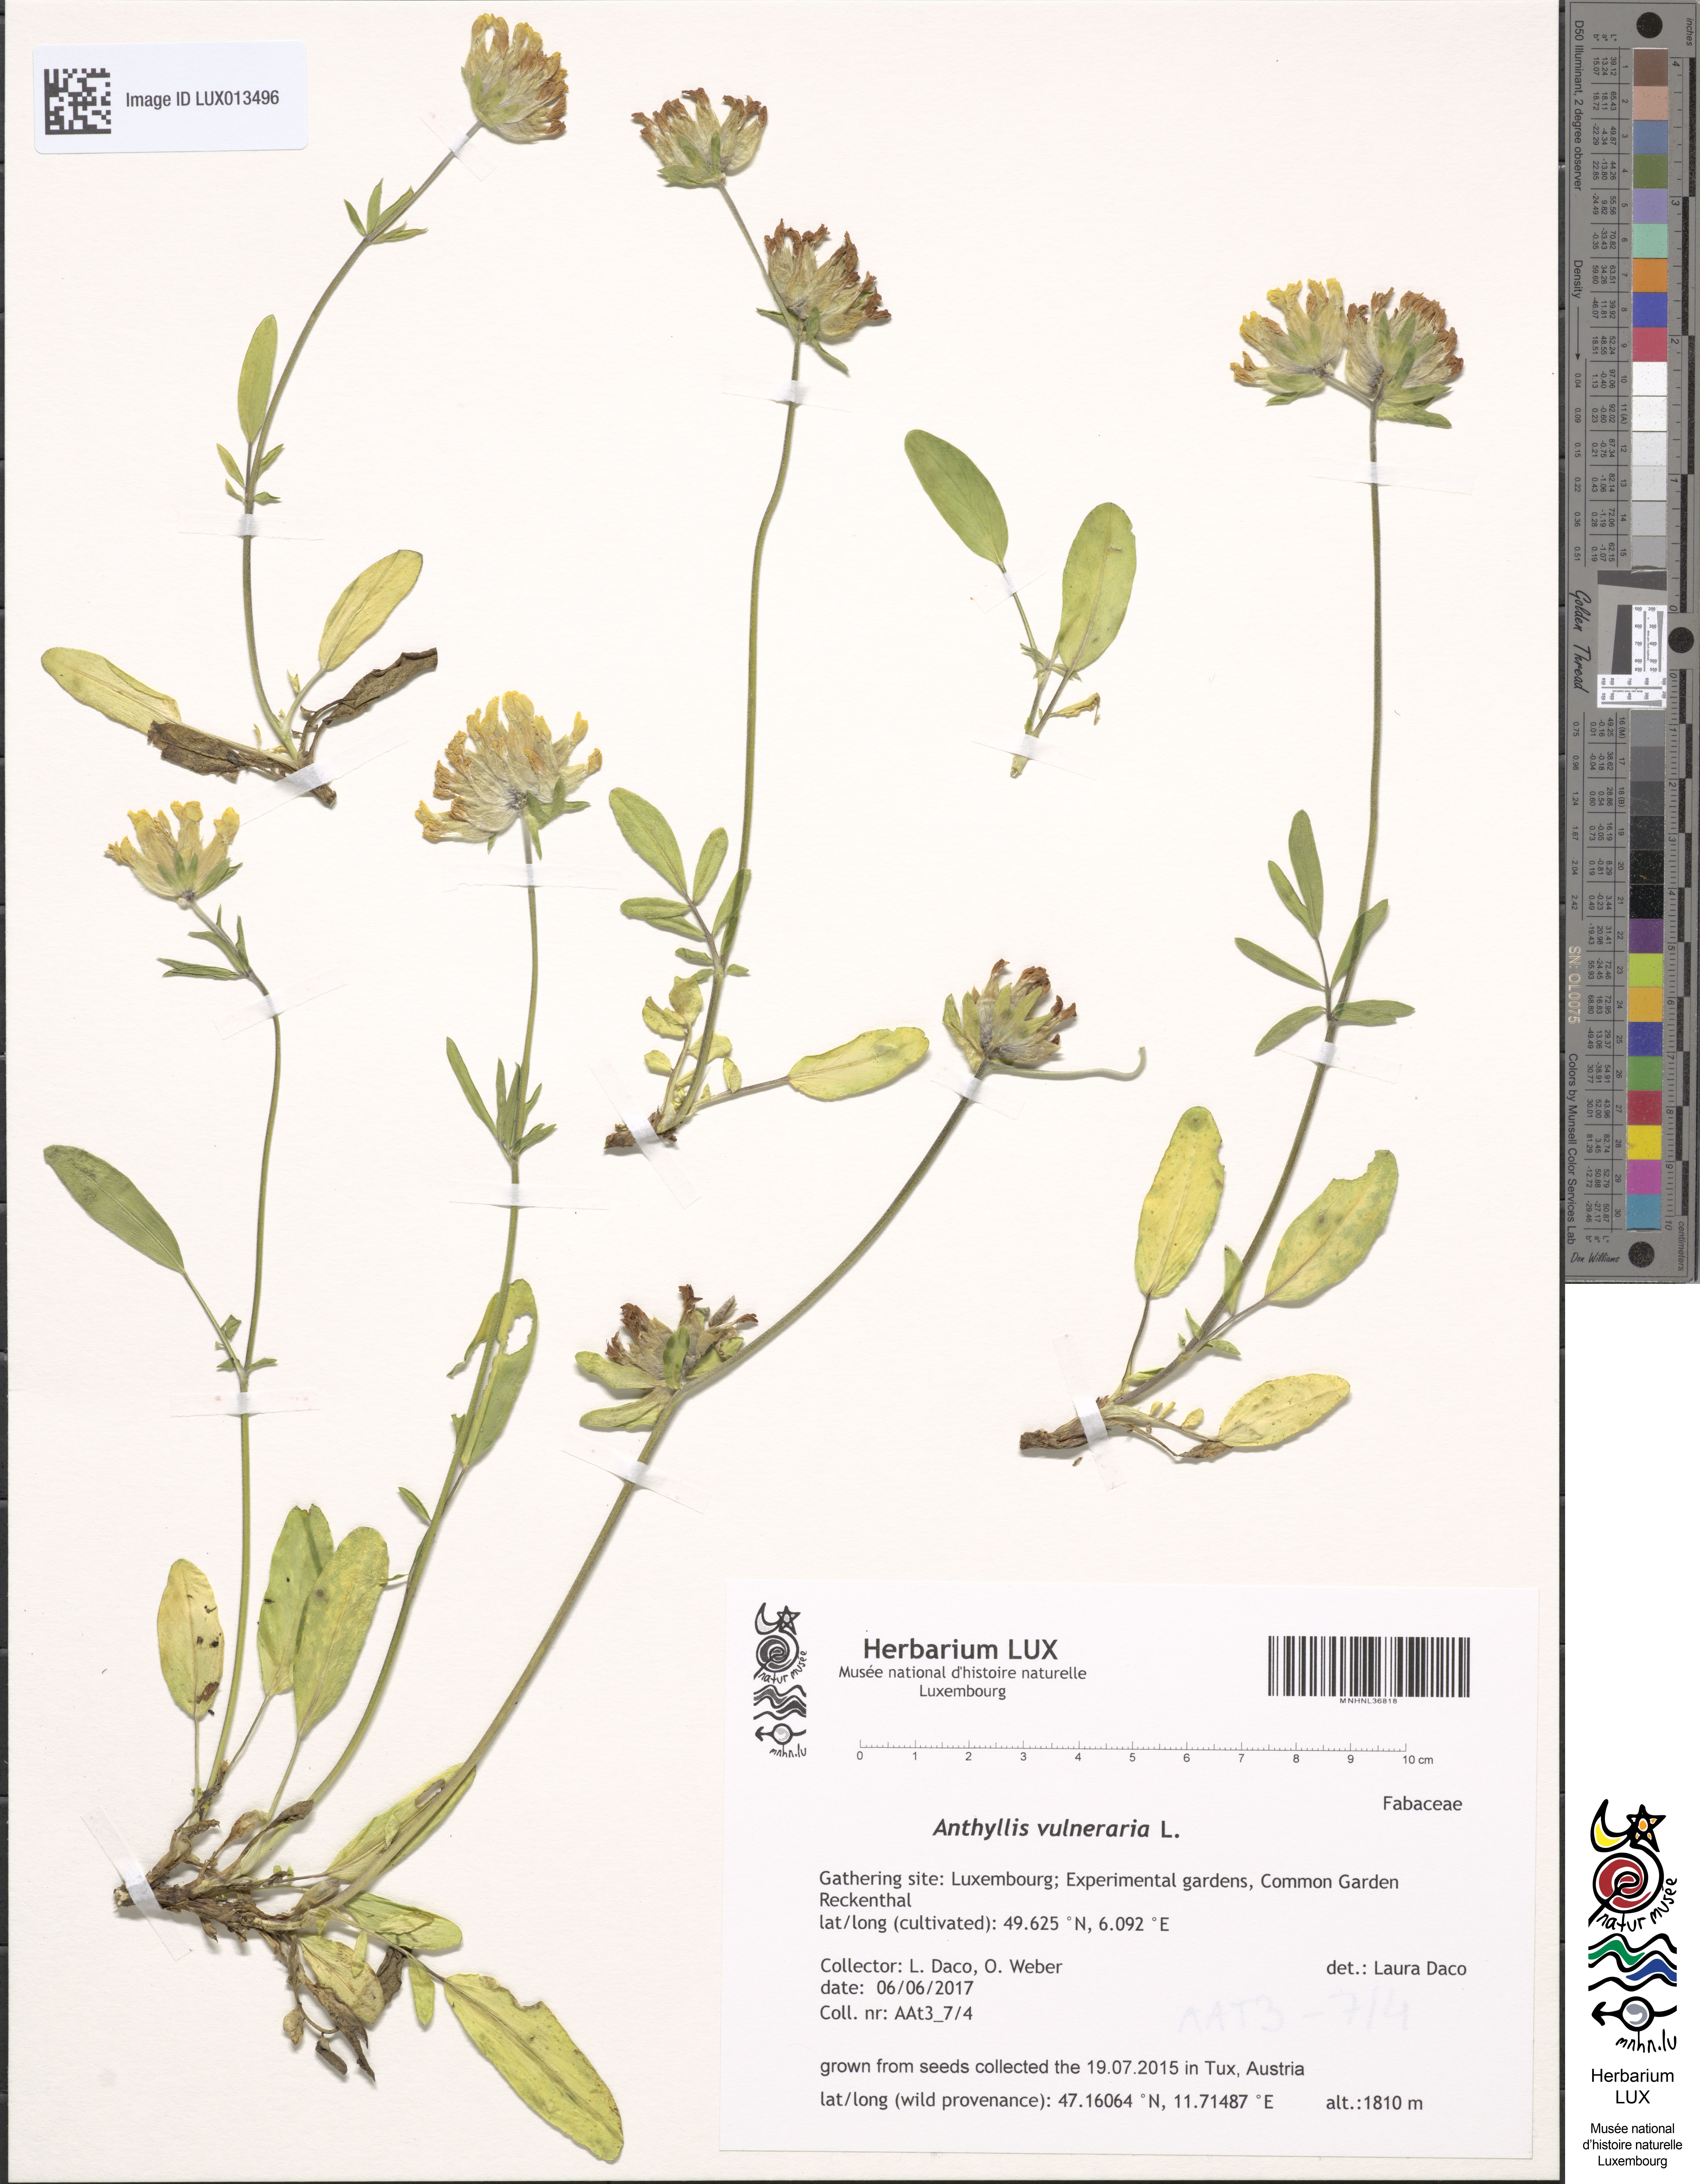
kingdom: Plantae
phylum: Tracheophyta
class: Magnoliopsida
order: Fabales
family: Fabaceae
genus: Anthyllis
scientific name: Anthyllis vulneraria
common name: Kidney vetch
